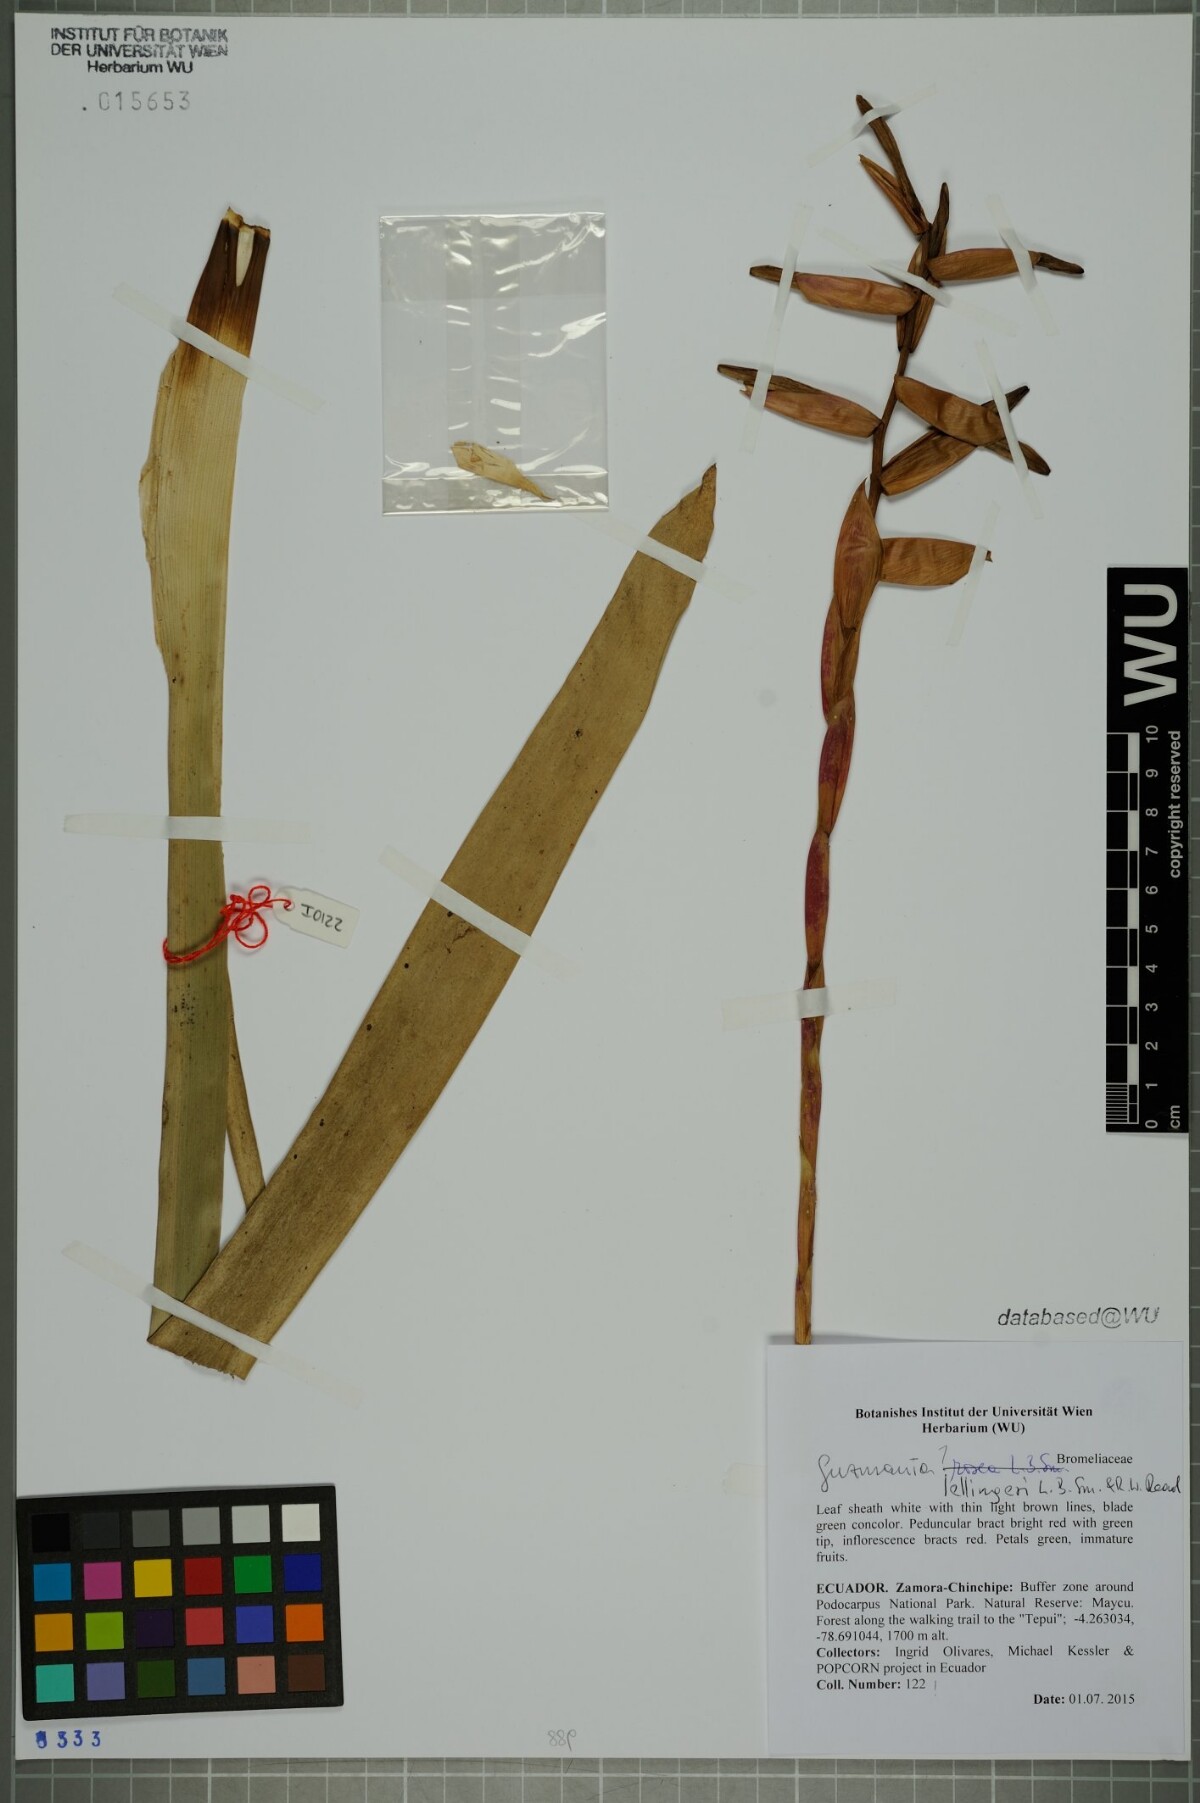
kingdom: Plantae
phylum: Tracheophyta
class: Liliopsida
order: Poales
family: Bromeliaceae
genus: Guzmania
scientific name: Guzmania sprucei
